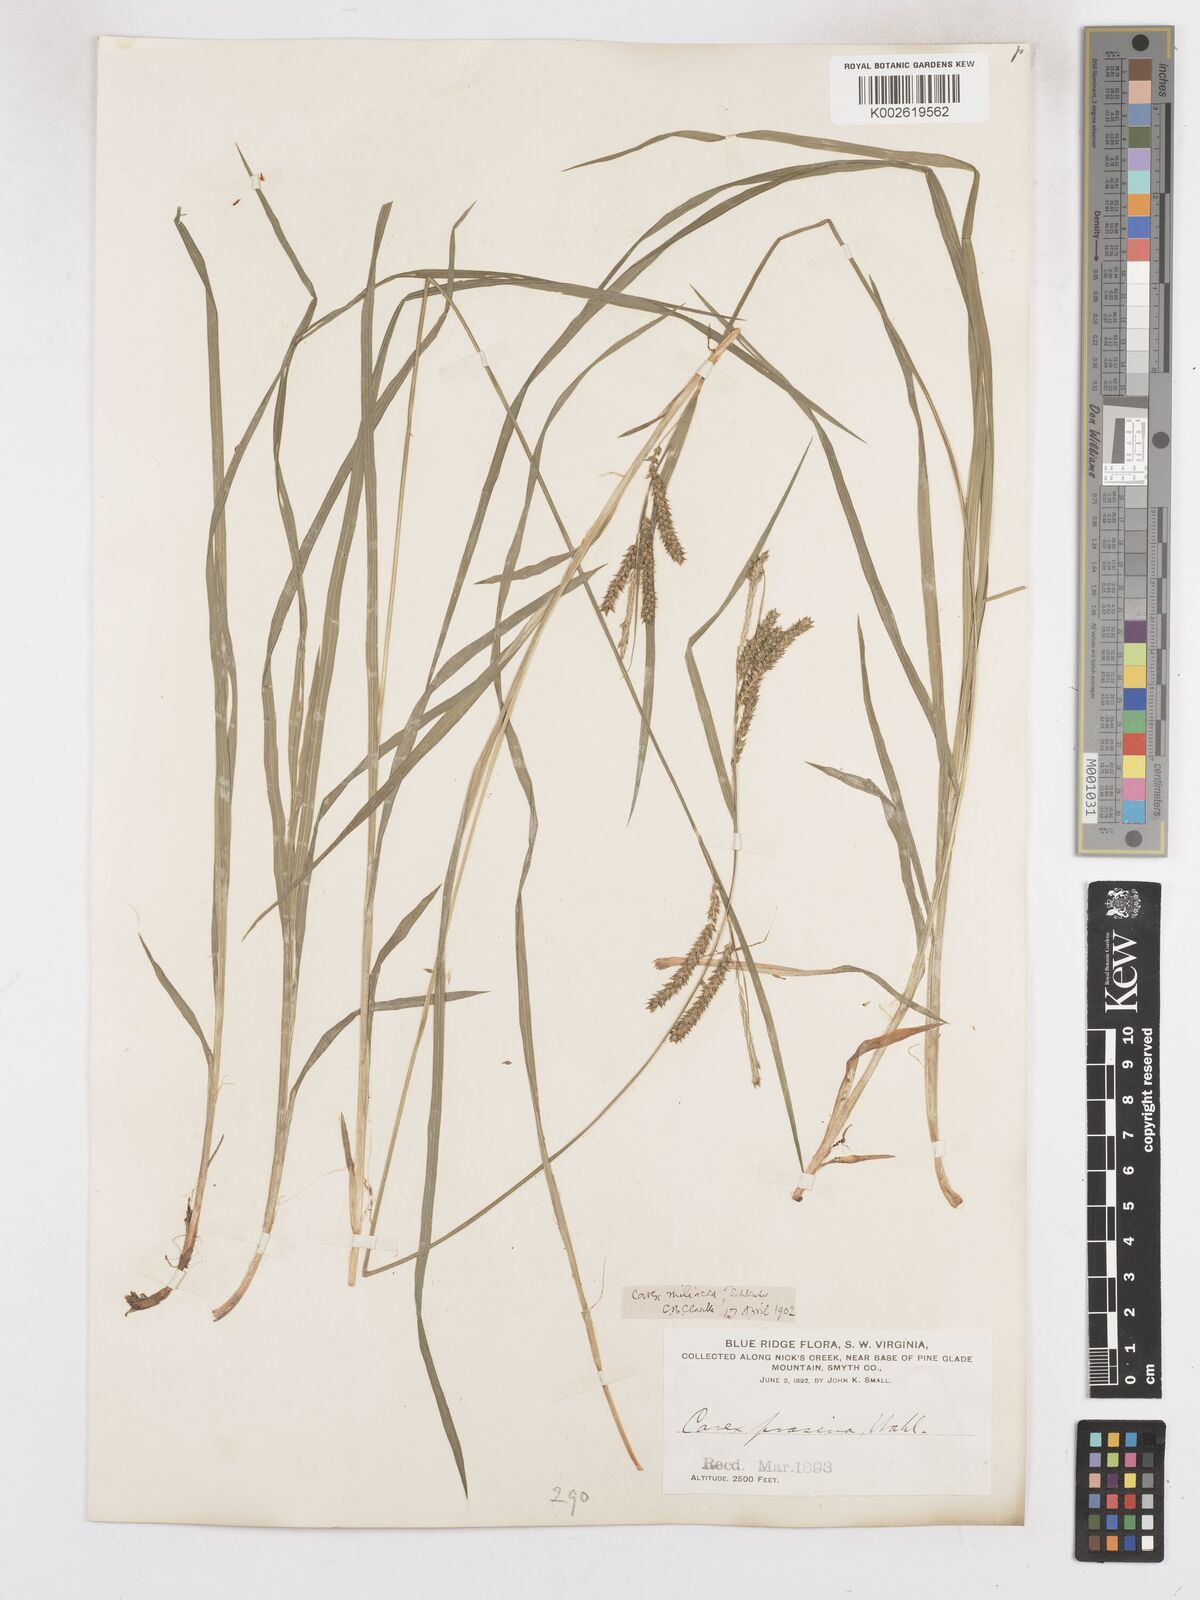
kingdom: Plantae
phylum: Tracheophyta
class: Liliopsida
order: Poales
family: Cyperaceae
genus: Carex
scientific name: Carex prasina
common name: Drooping sedge
